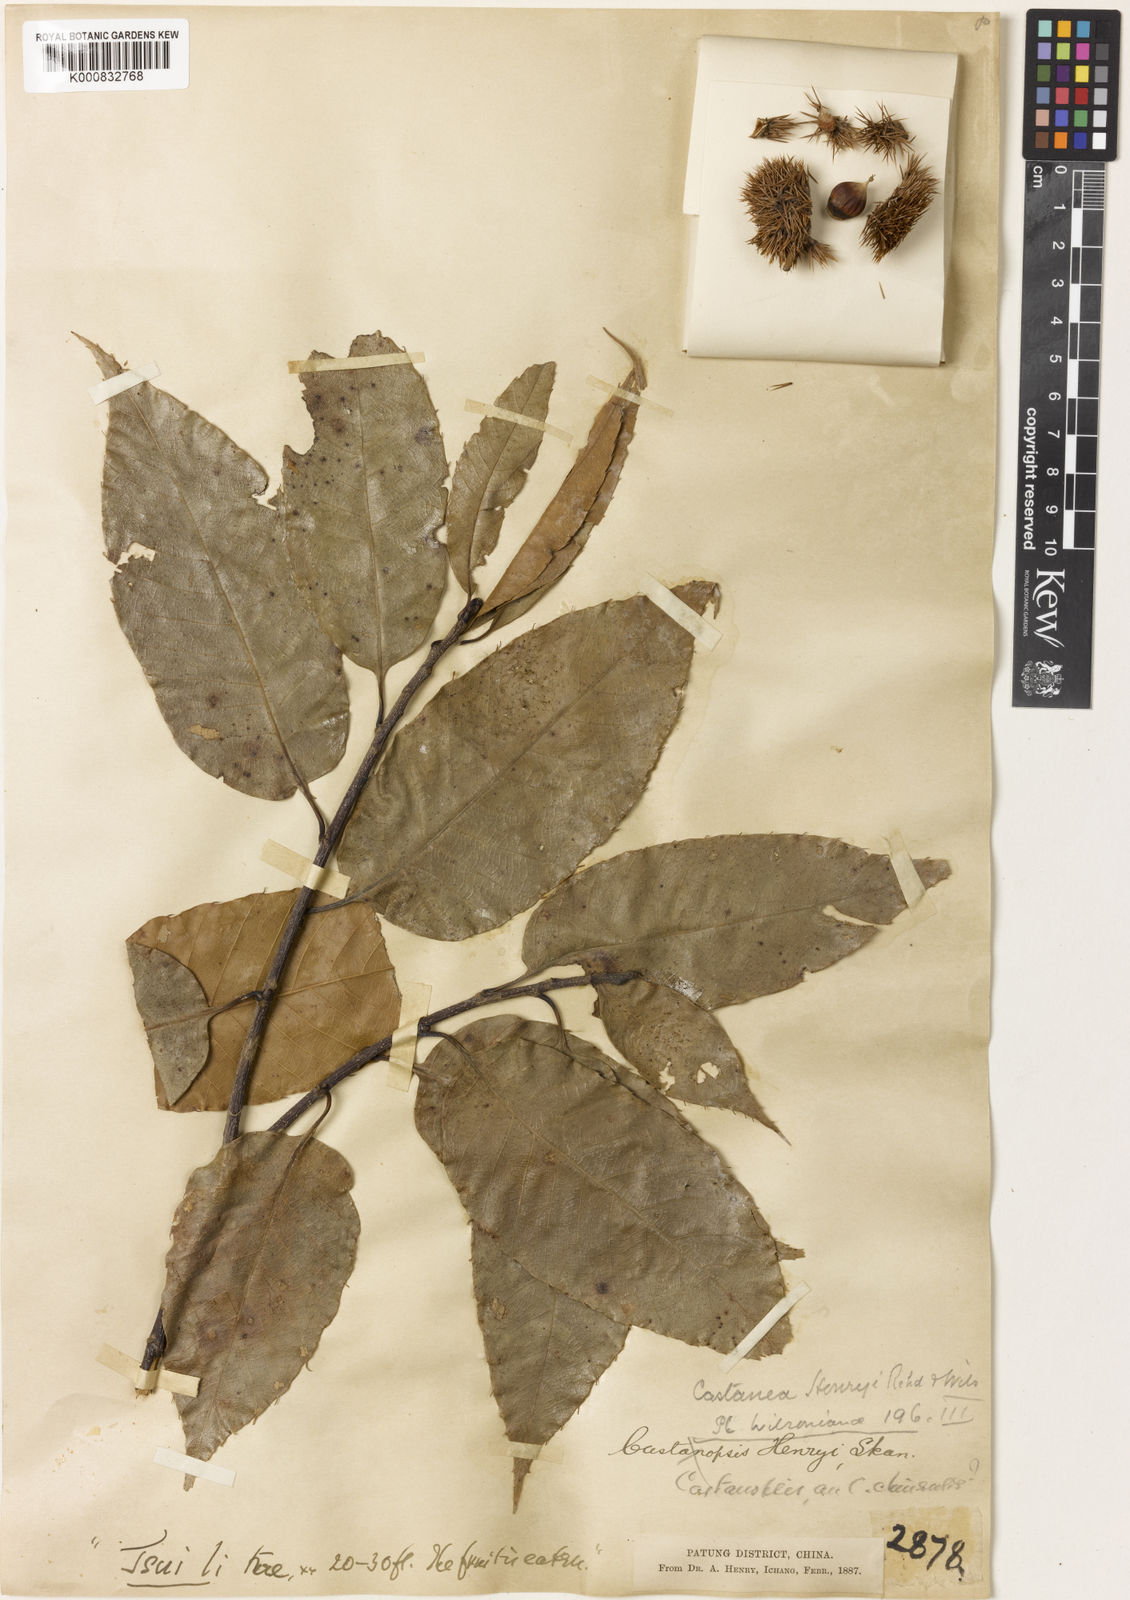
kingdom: Plantae
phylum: Tracheophyta
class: Magnoliopsida
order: Fagales
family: Fagaceae
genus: Castanea
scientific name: Castanea henryi
